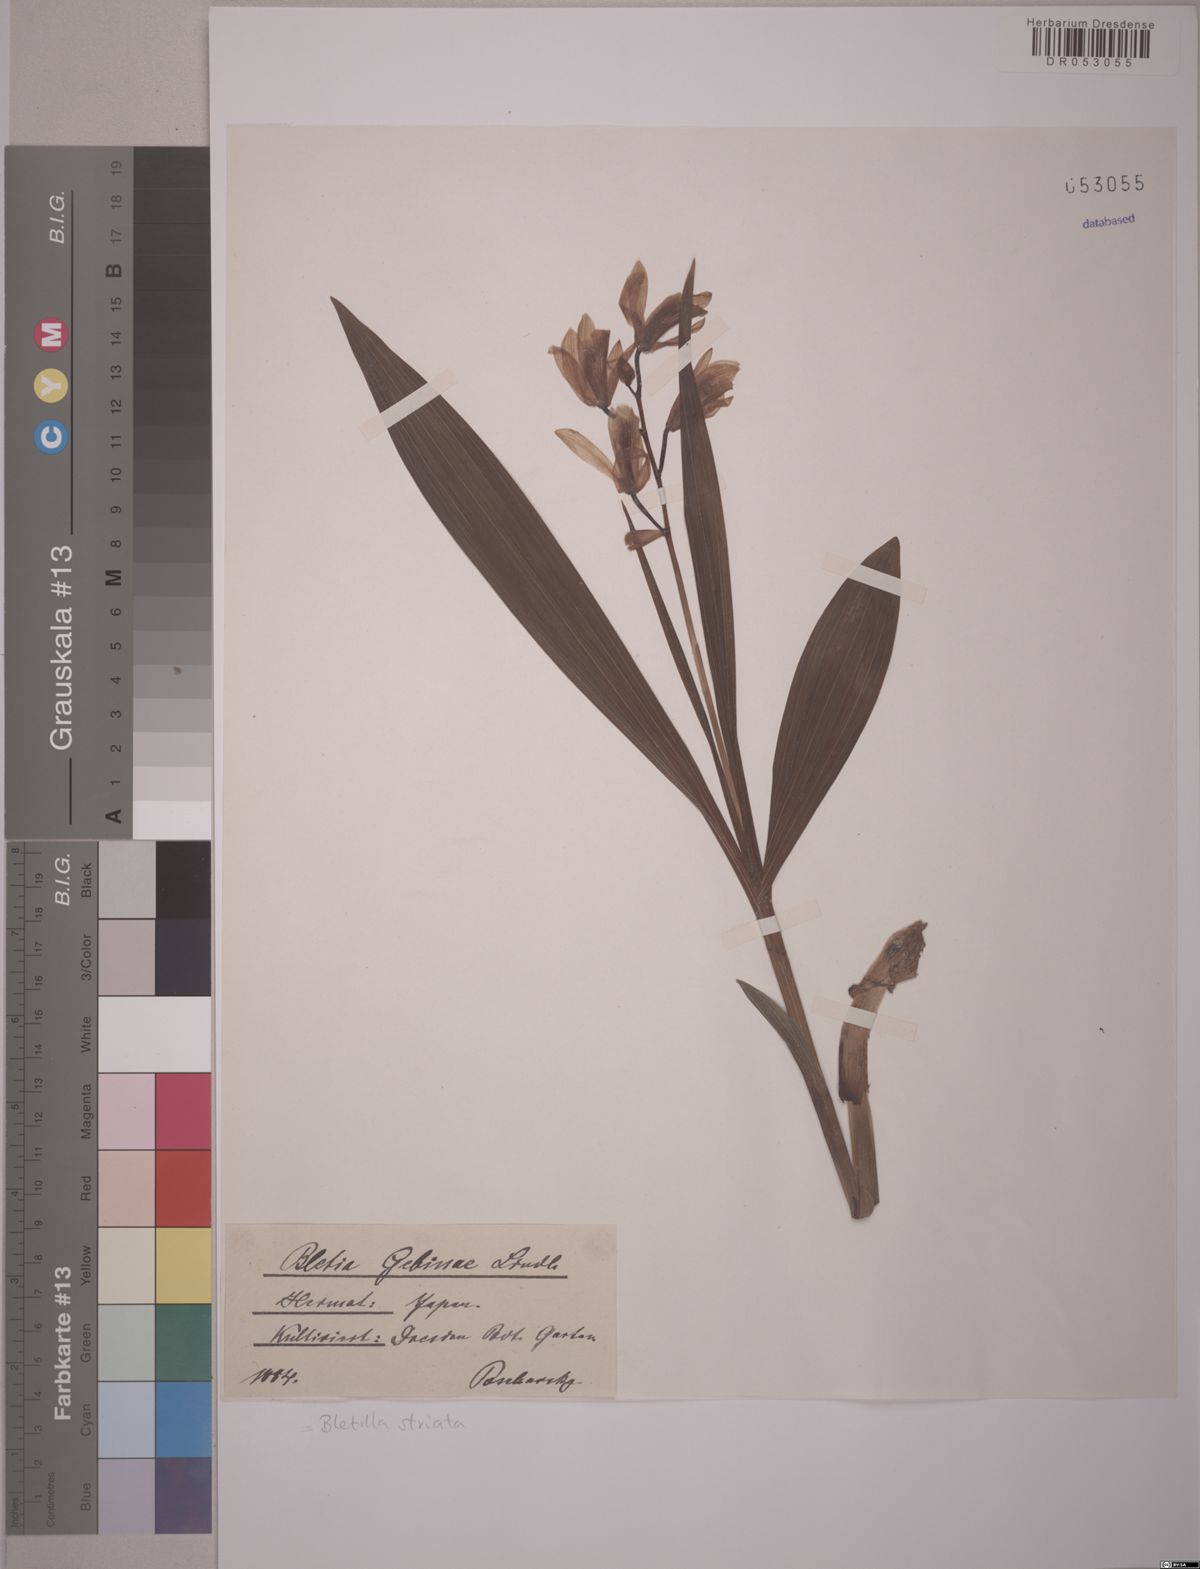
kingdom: Plantae
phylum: Tracheophyta
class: Liliopsida
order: Asparagales
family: Orchidaceae
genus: Bletilla
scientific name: Bletilla striata
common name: Hyacinth orchid
